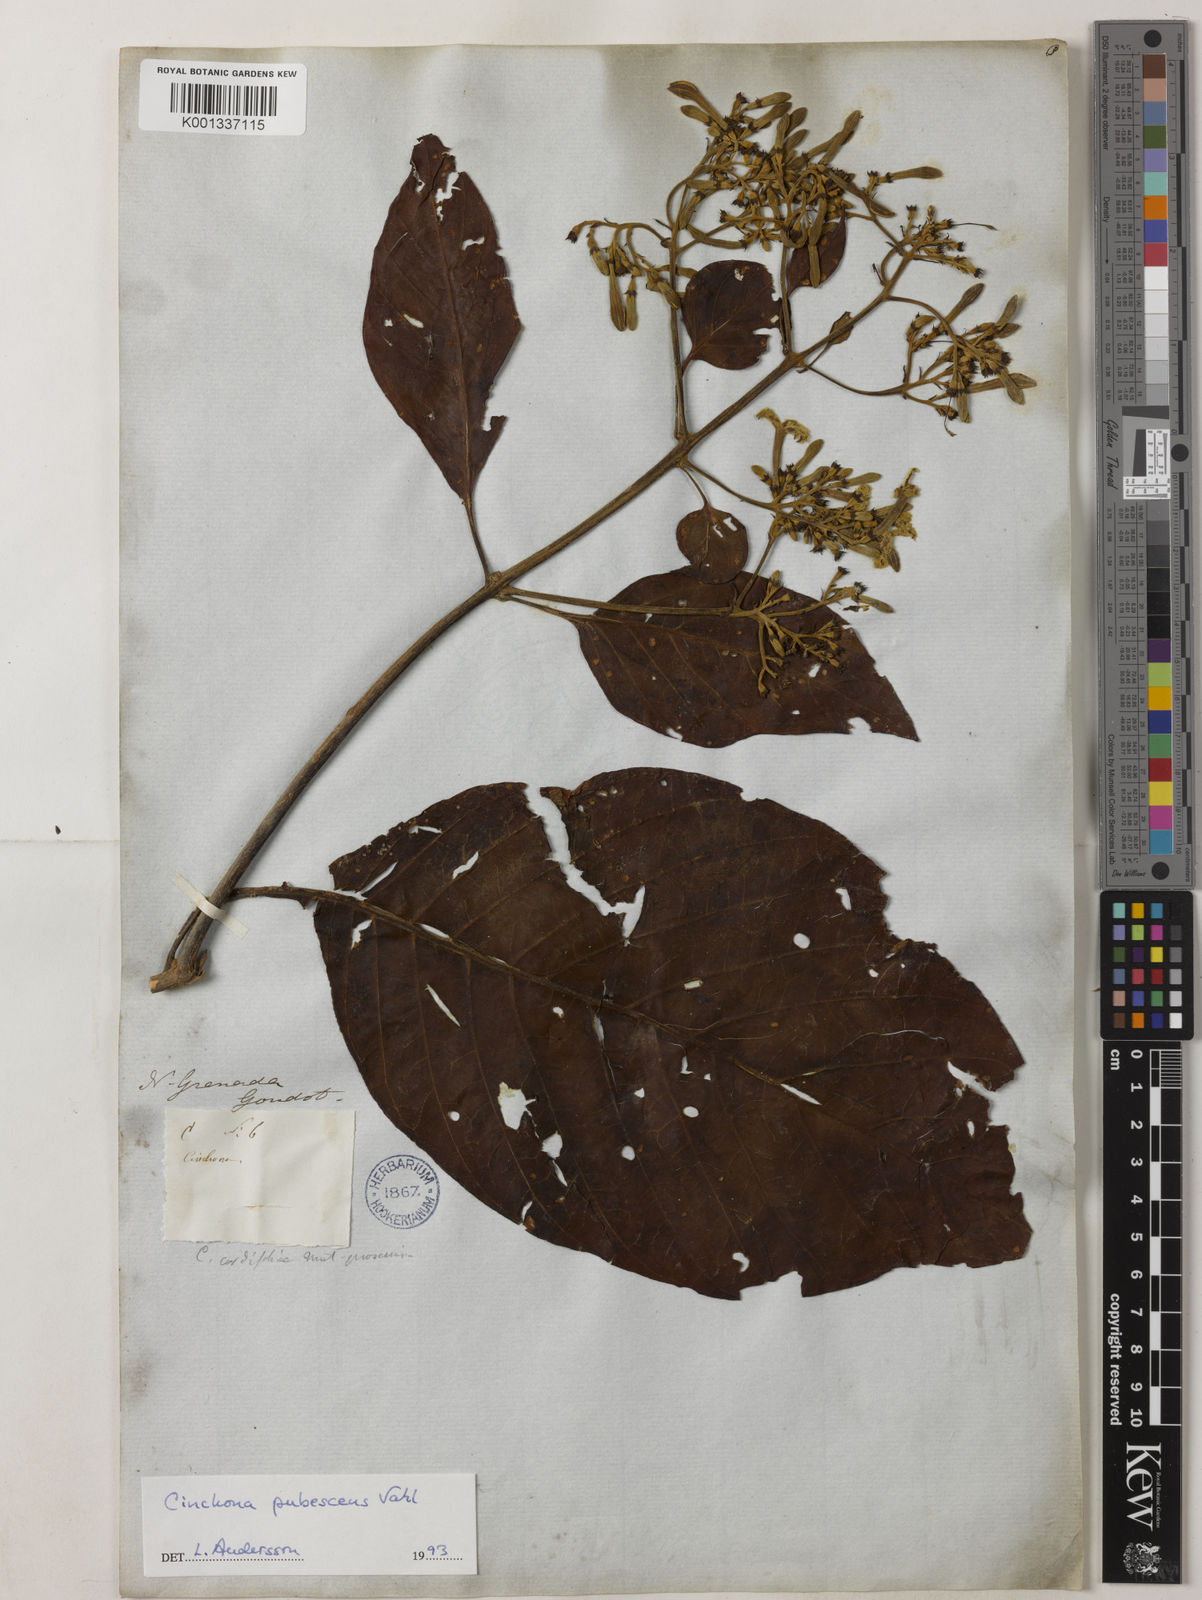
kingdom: Plantae
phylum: Tracheophyta
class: Magnoliopsida
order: Gentianales
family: Rubiaceae
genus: Cinchona
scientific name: Cinchona pubescens
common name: Quinine
